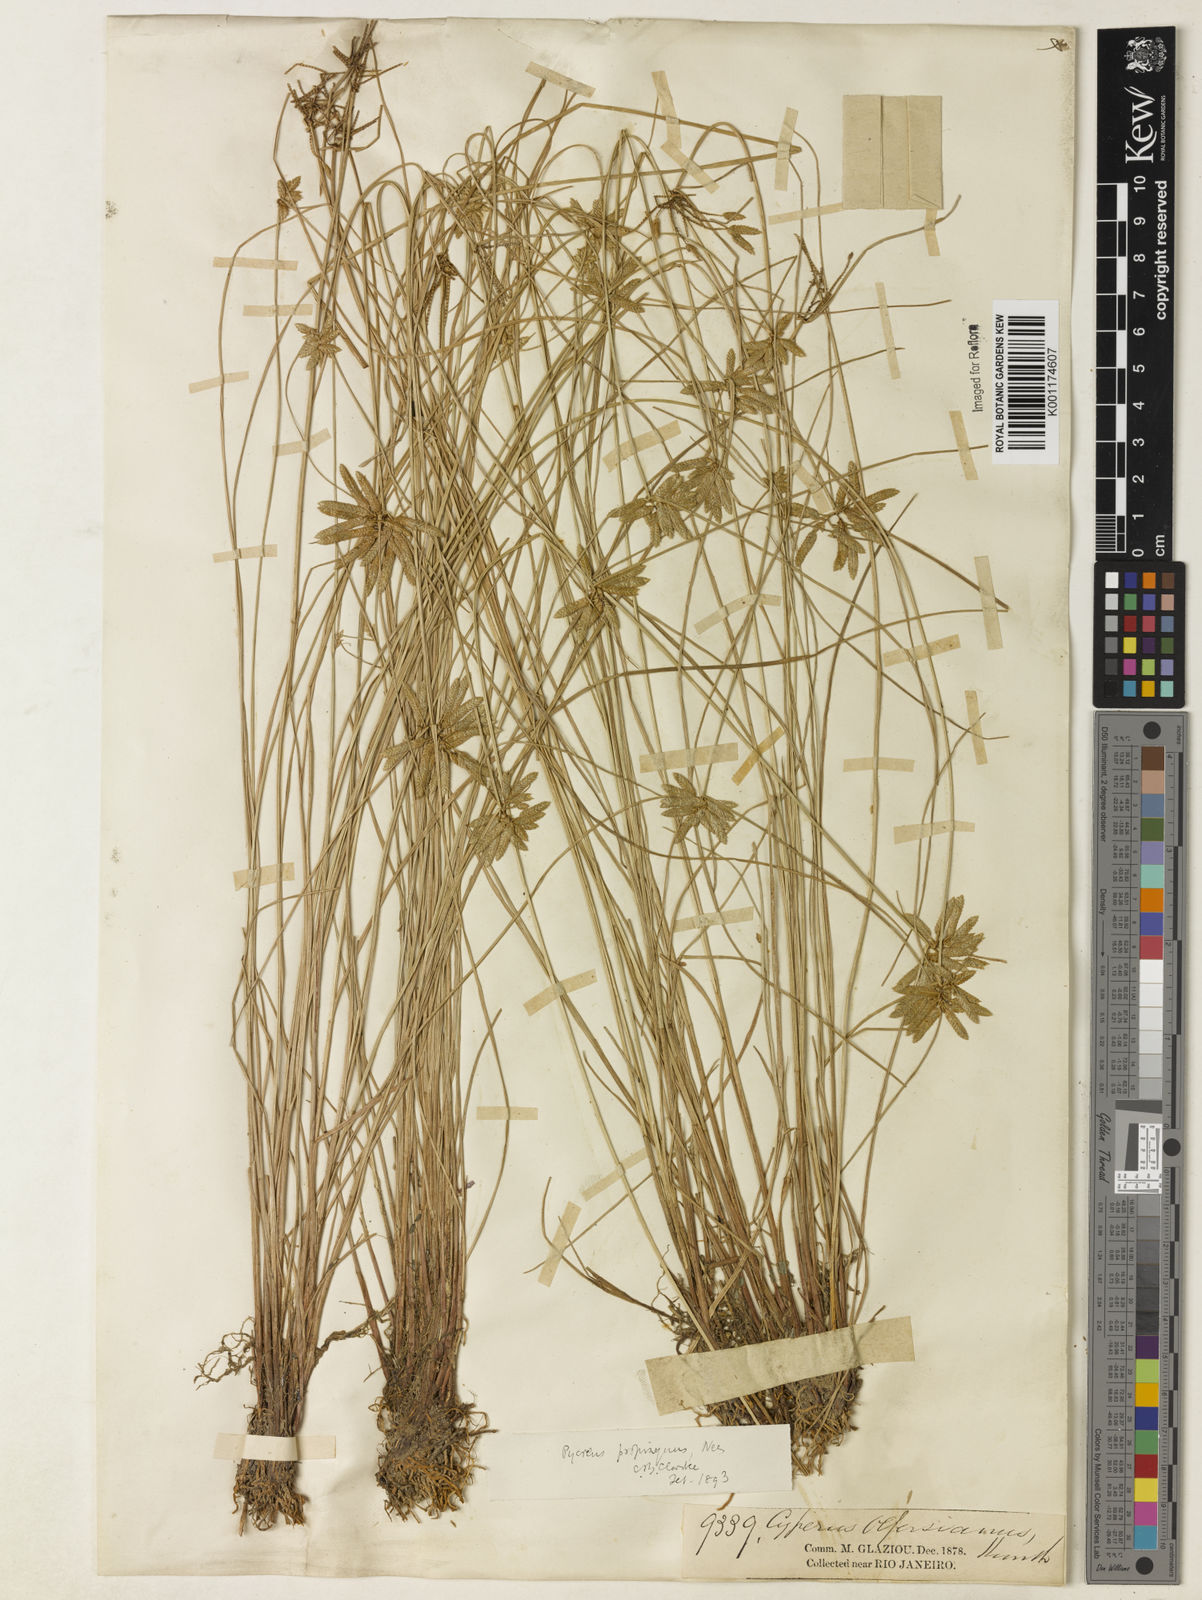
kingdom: Plantae
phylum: Tracheophyta
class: Liliopsida
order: Poales
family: Cyperaceae
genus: Cyperus
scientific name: Cyperus lanceolatus
